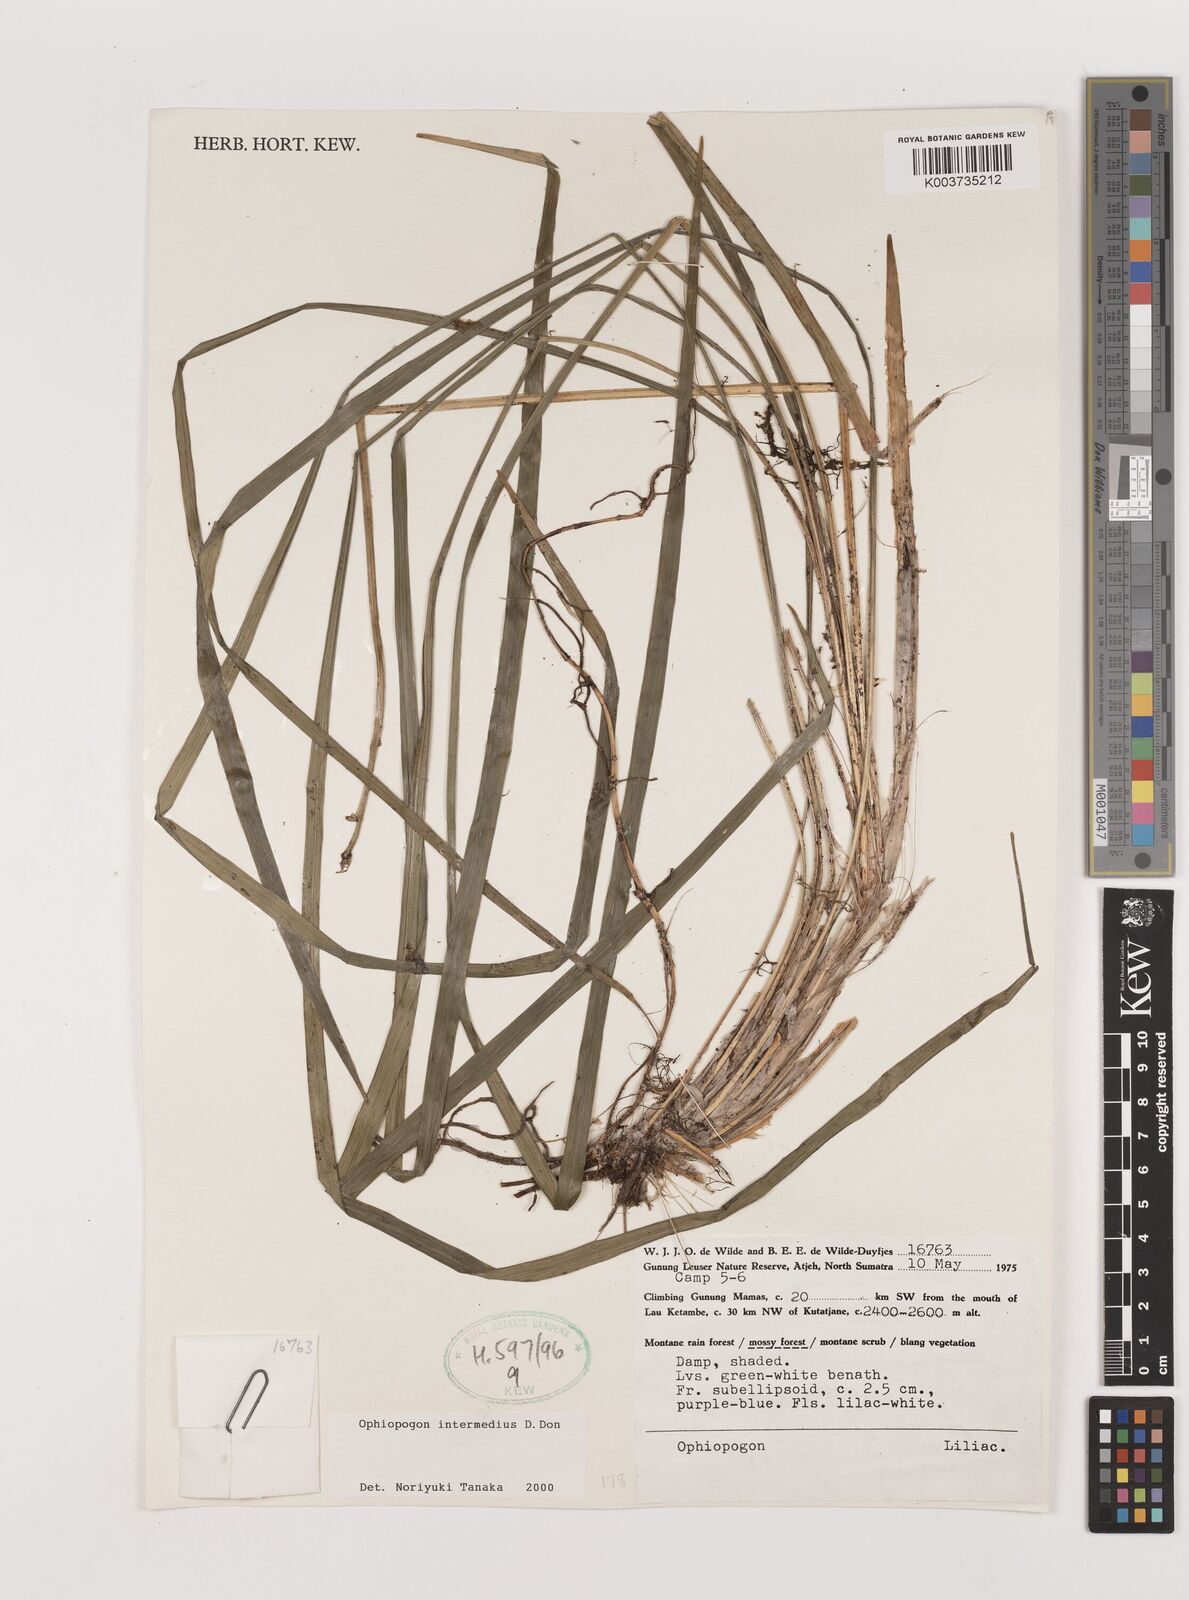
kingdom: Plantae
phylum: Tracheophyta
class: Liliopsida
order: Asparagales
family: Asparagaceae
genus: Ophiopogon
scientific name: Ophiopogon intermedius
